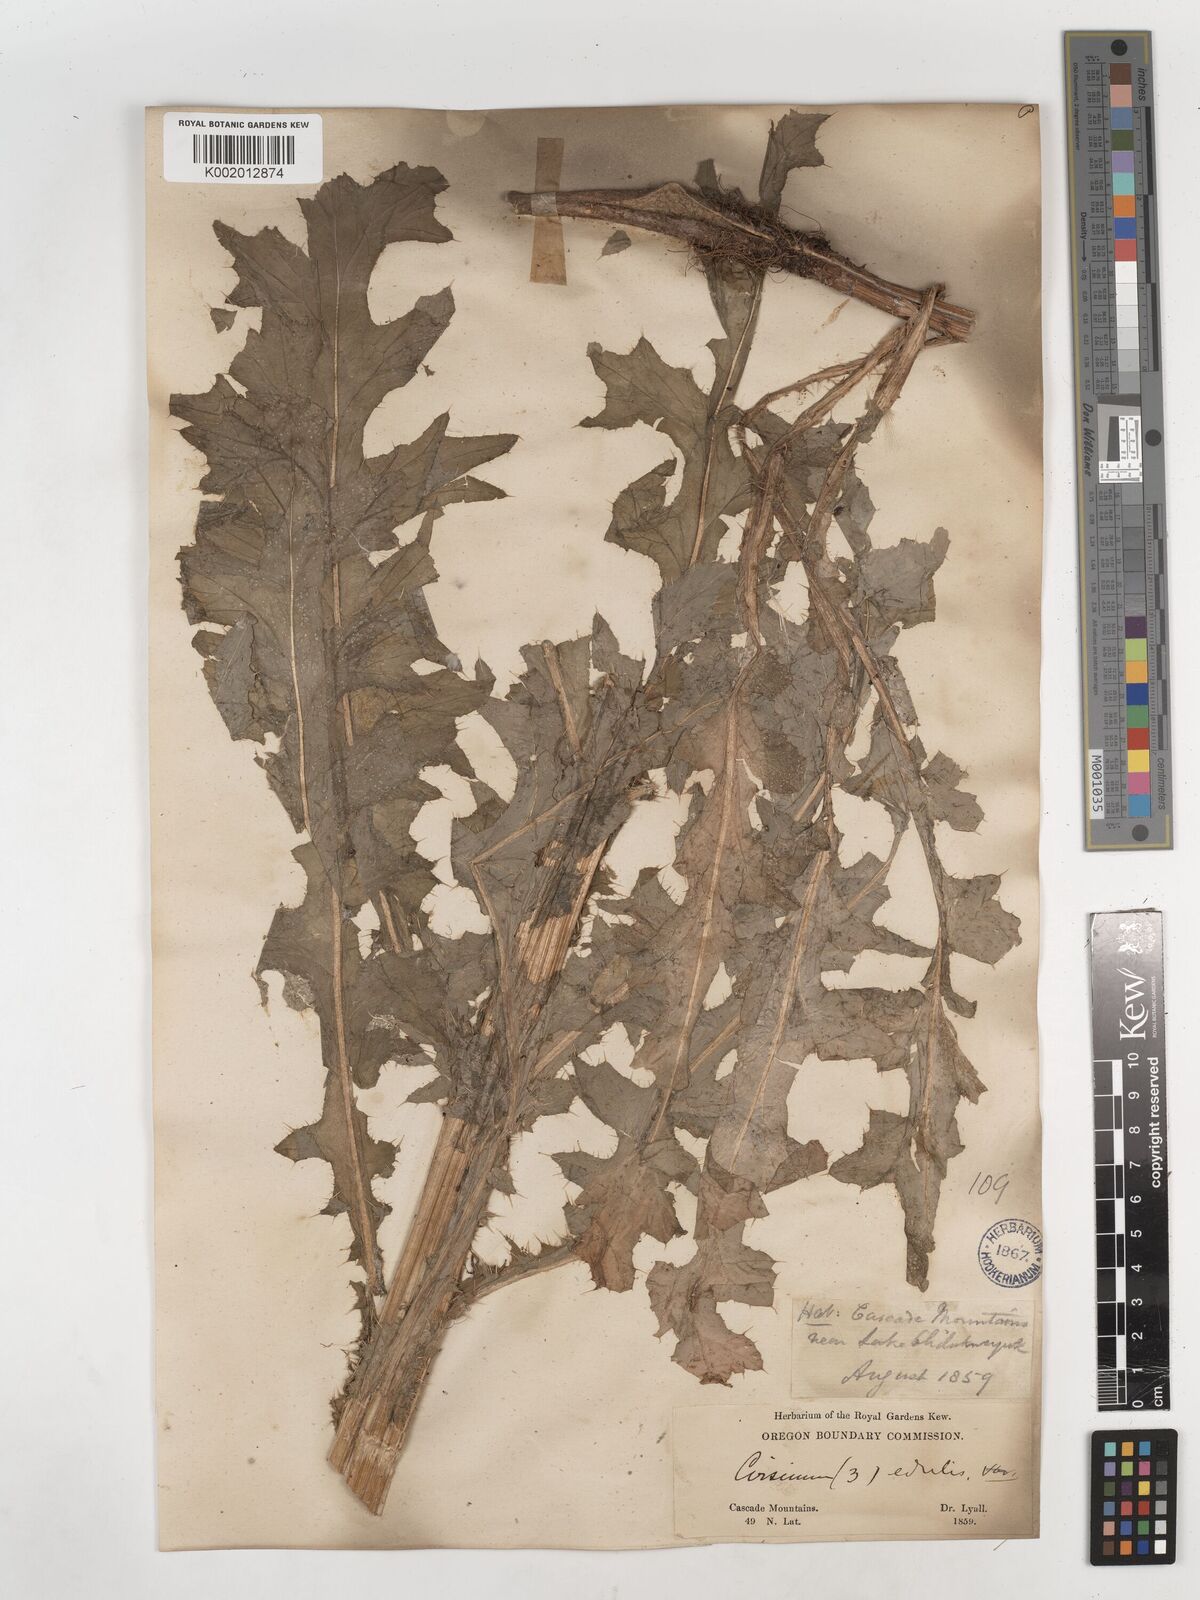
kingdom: Plantae
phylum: Tracheophyta
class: Magnoliopsida
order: Asterales
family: Asteraceae
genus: Cirsium
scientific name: Cirsium edule
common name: Indian thistle
